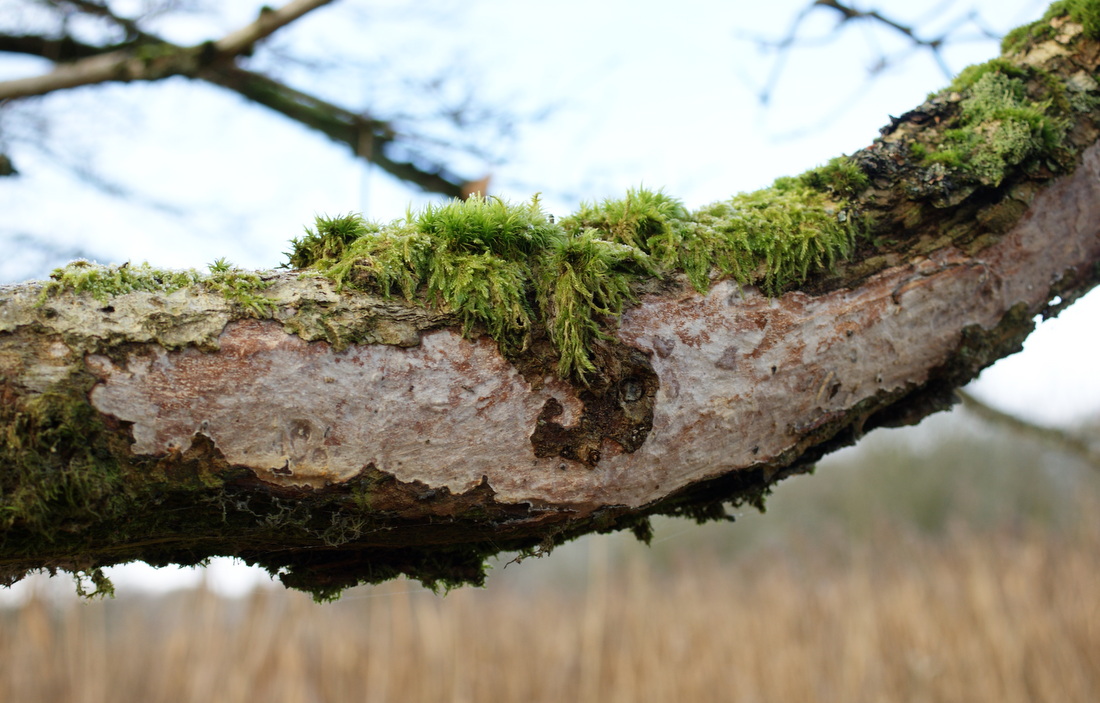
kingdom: Fungi
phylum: Basidiomycota
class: Agaricomycetes
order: Corticiales
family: Vuilleminiaceae
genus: Vuilleminia
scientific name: Vuilleminia comedens
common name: almindelig barksprænger
